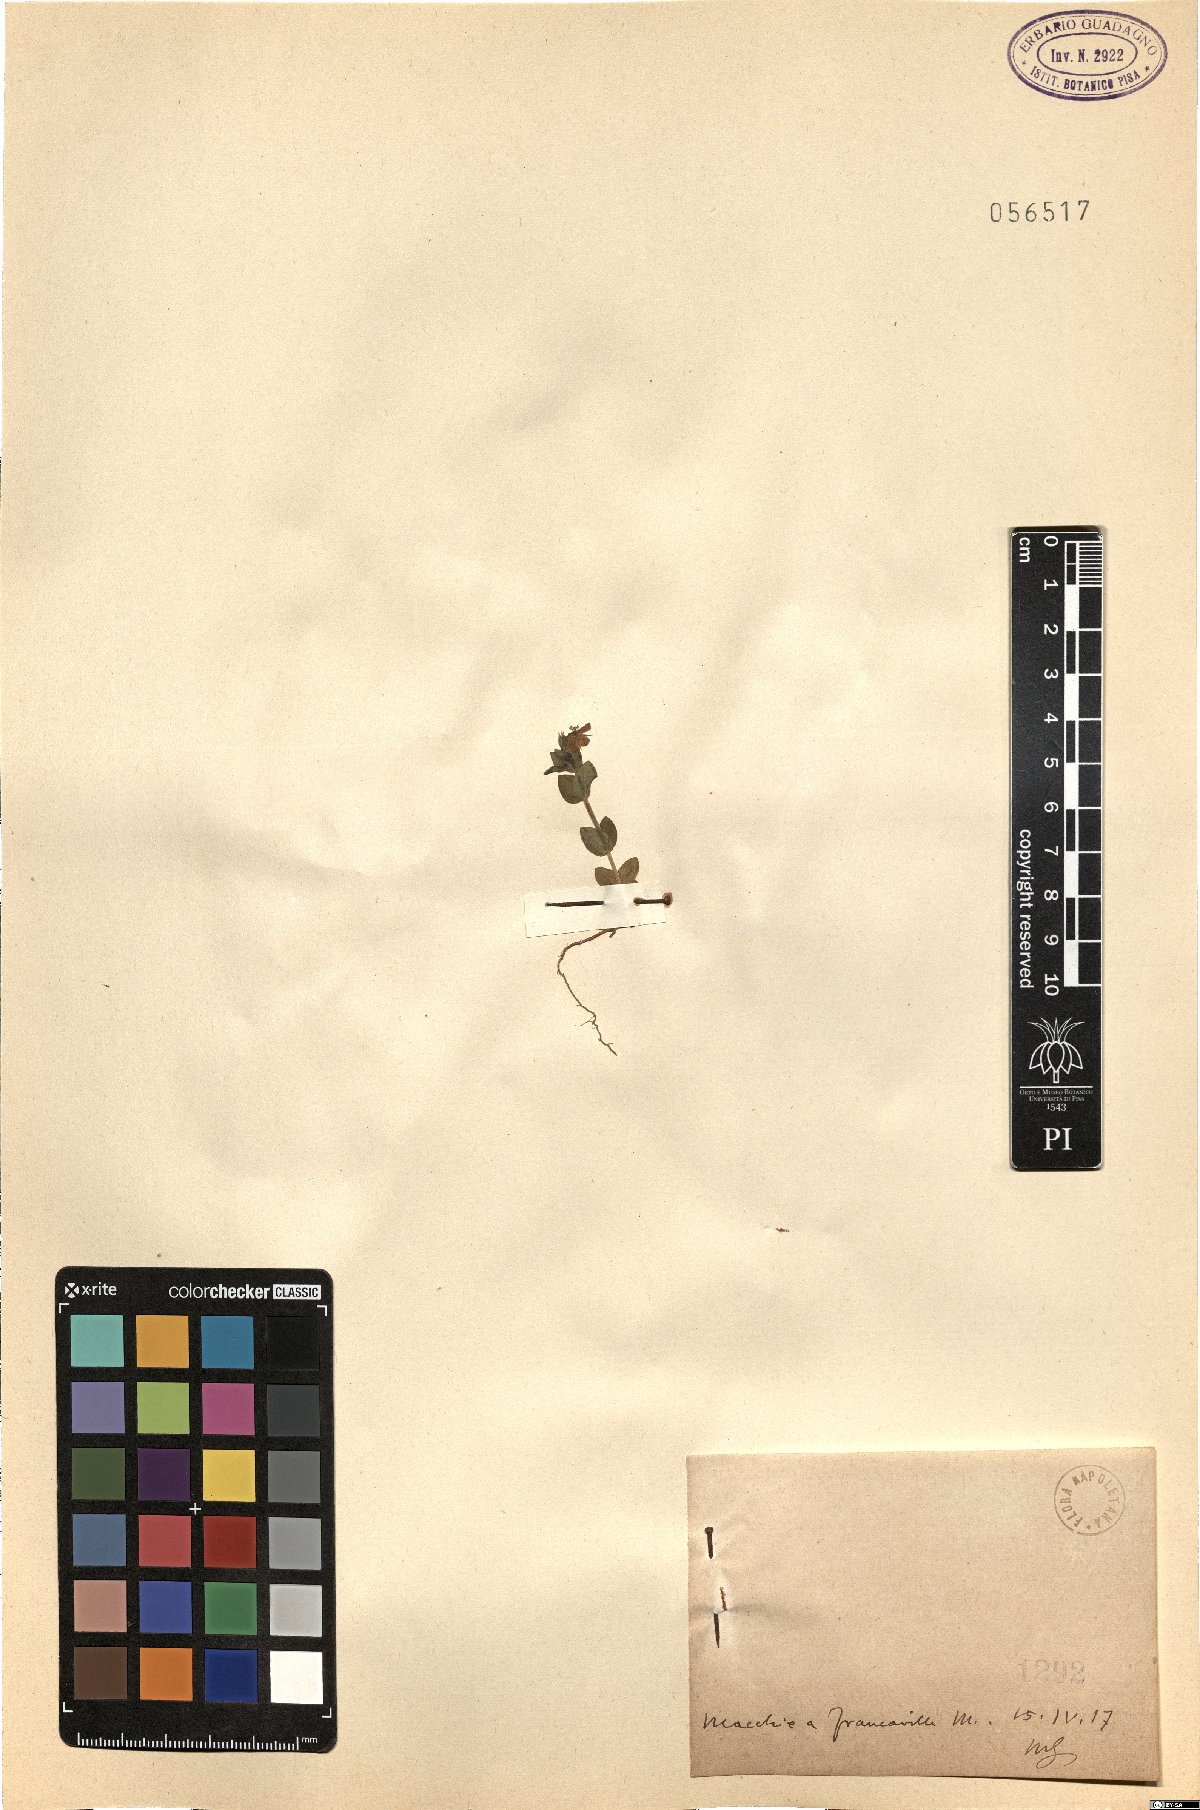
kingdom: Plantae
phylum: Tracheophyta
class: Magnoliopsida
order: Ericales
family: Primulaceae
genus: Lysimachia
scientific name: Lysimachia Anagallis spec
